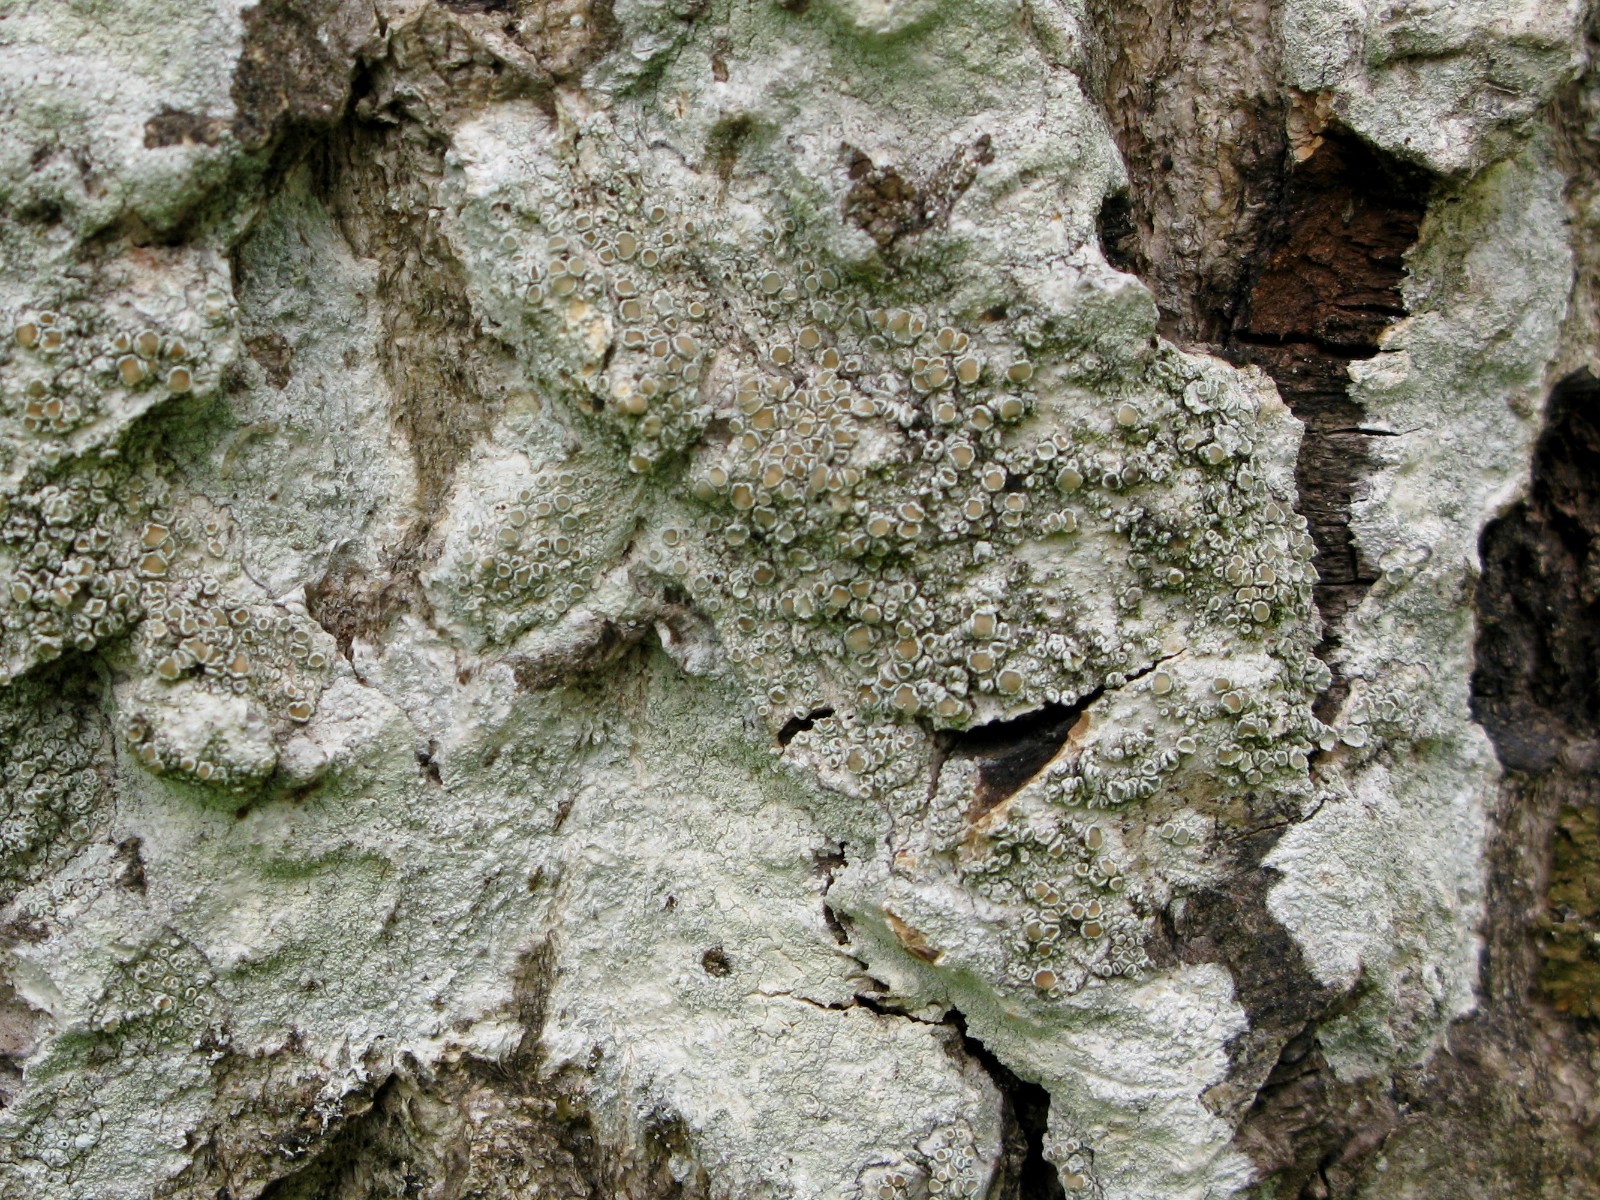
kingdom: Fungi
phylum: Ascomycota
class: Lecanoromycetes
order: Lecanorales
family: Lecanoraceae
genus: Lecanora
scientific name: Lecanora chlarotera
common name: brun kantskivelav
